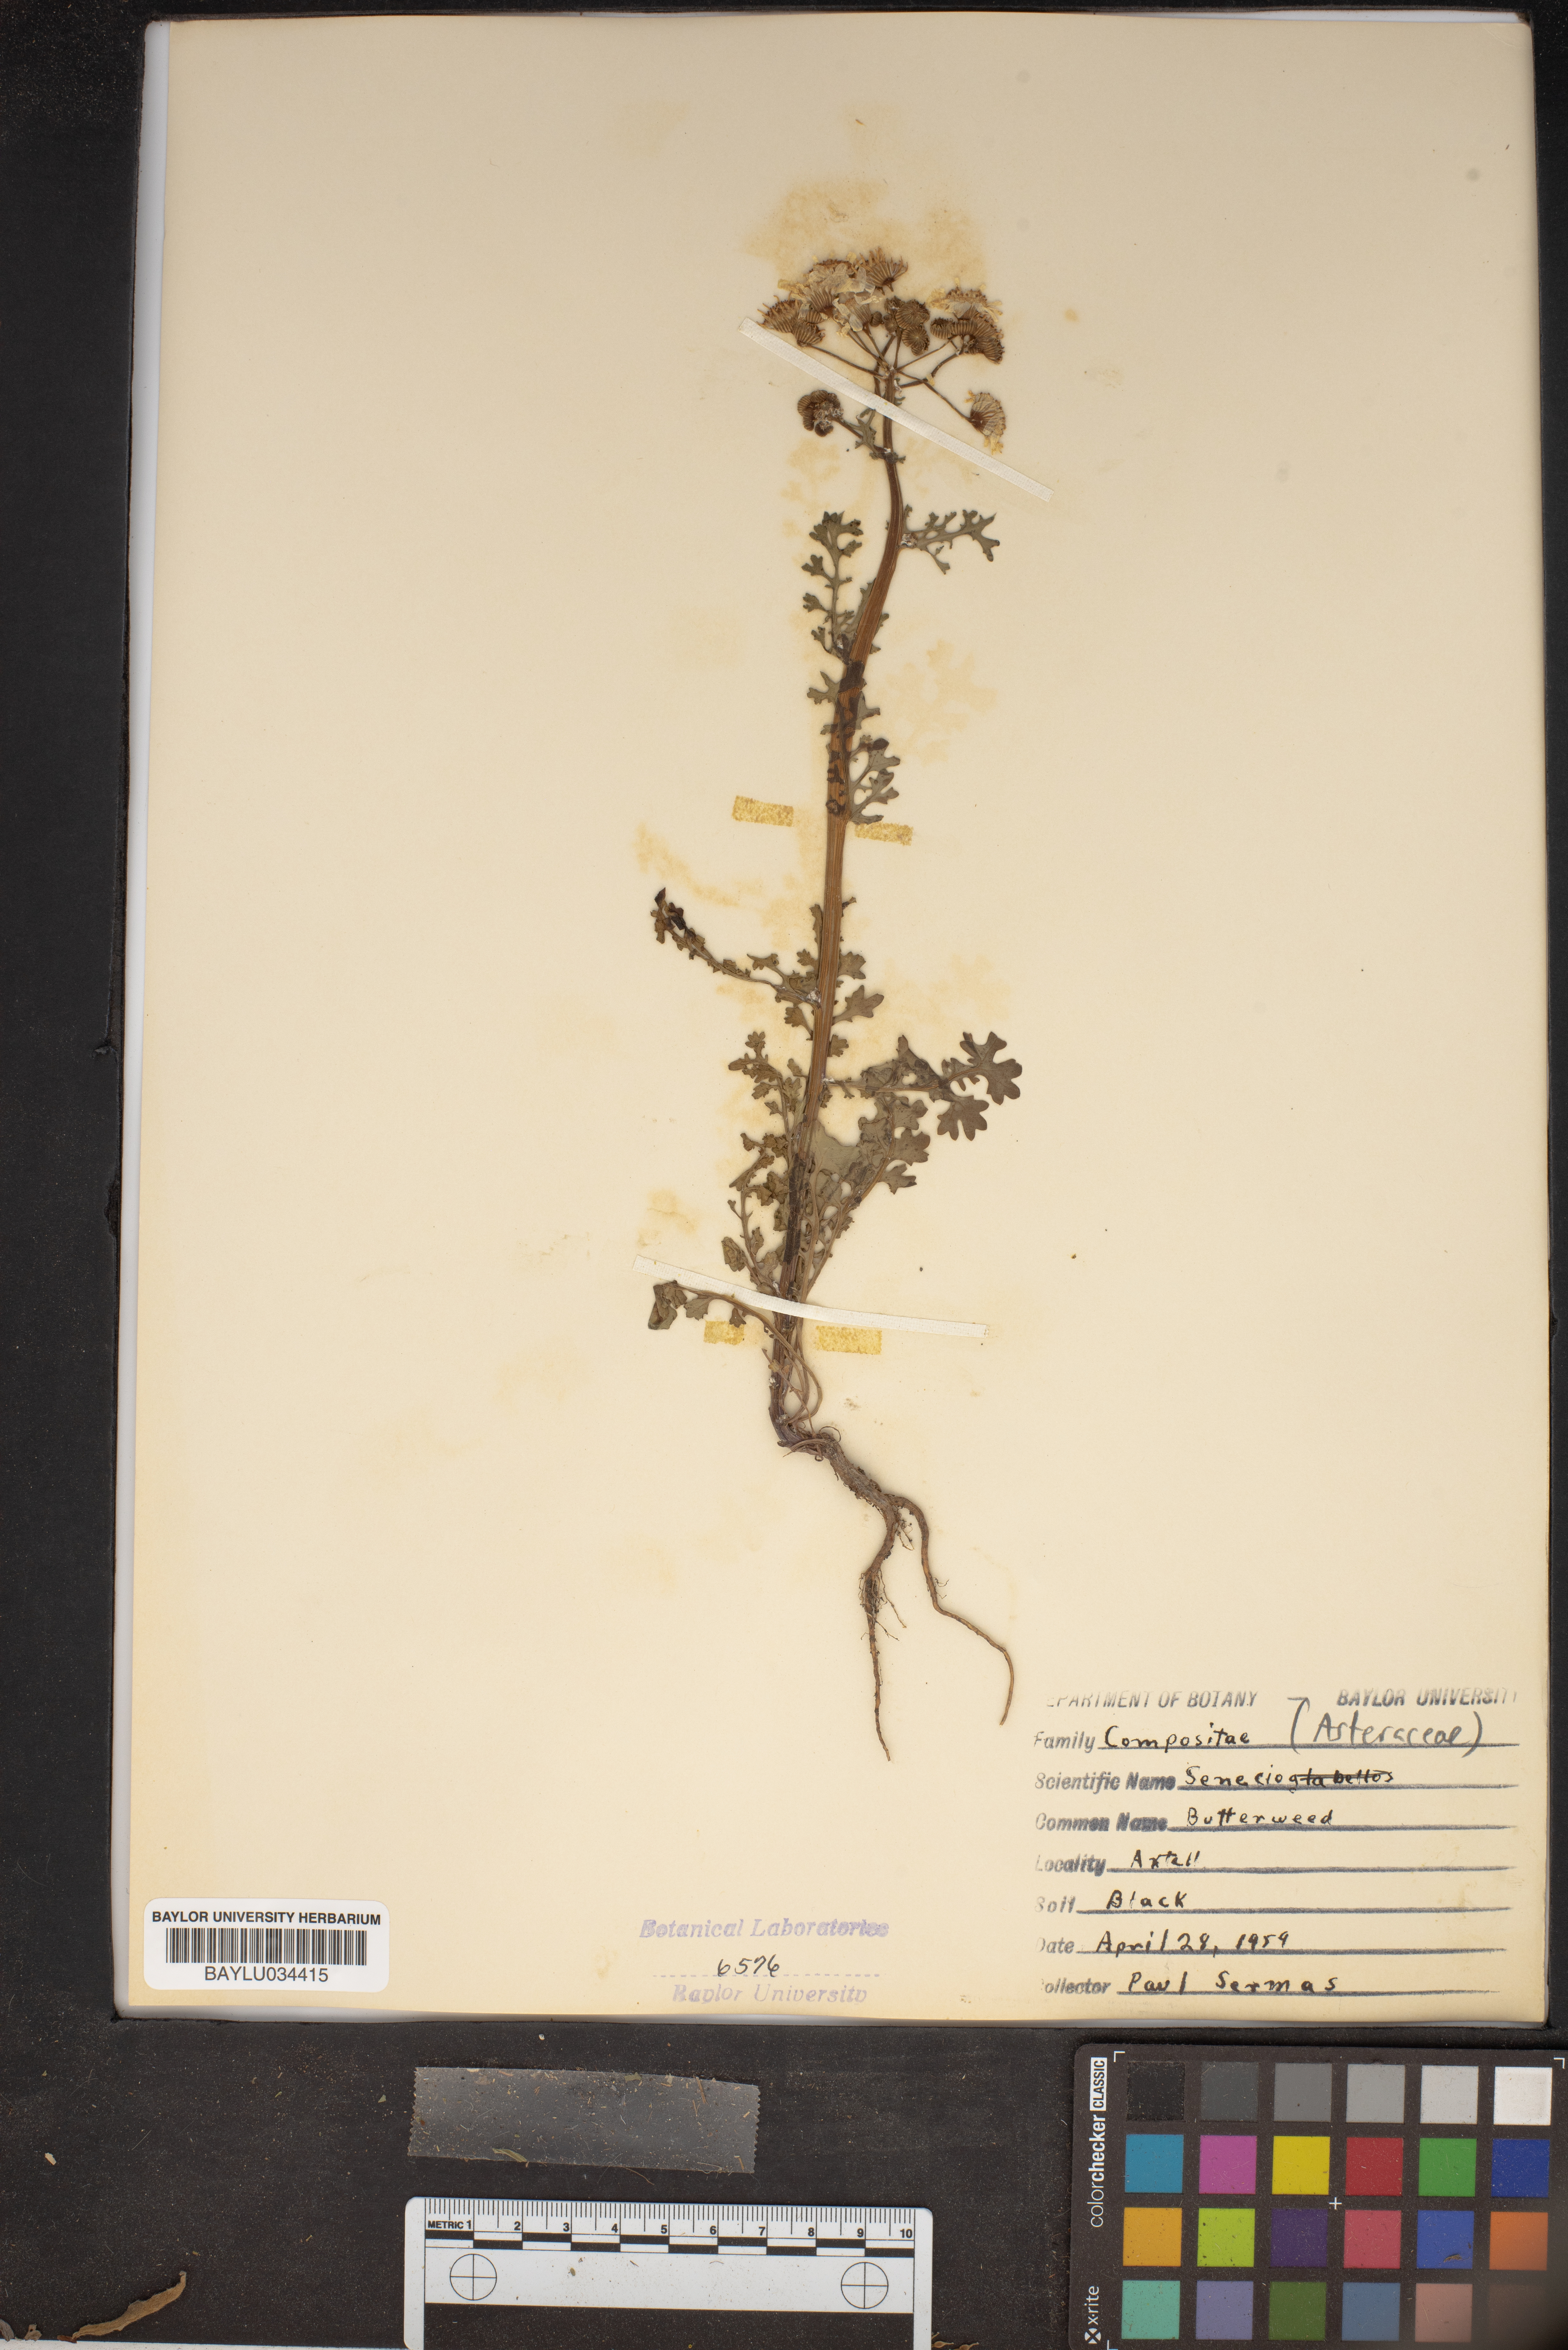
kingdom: Plantae
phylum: Tracheophyta
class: Magnoliopsida
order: Asterales
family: Asteraceae
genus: Senecio
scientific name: Senecio
